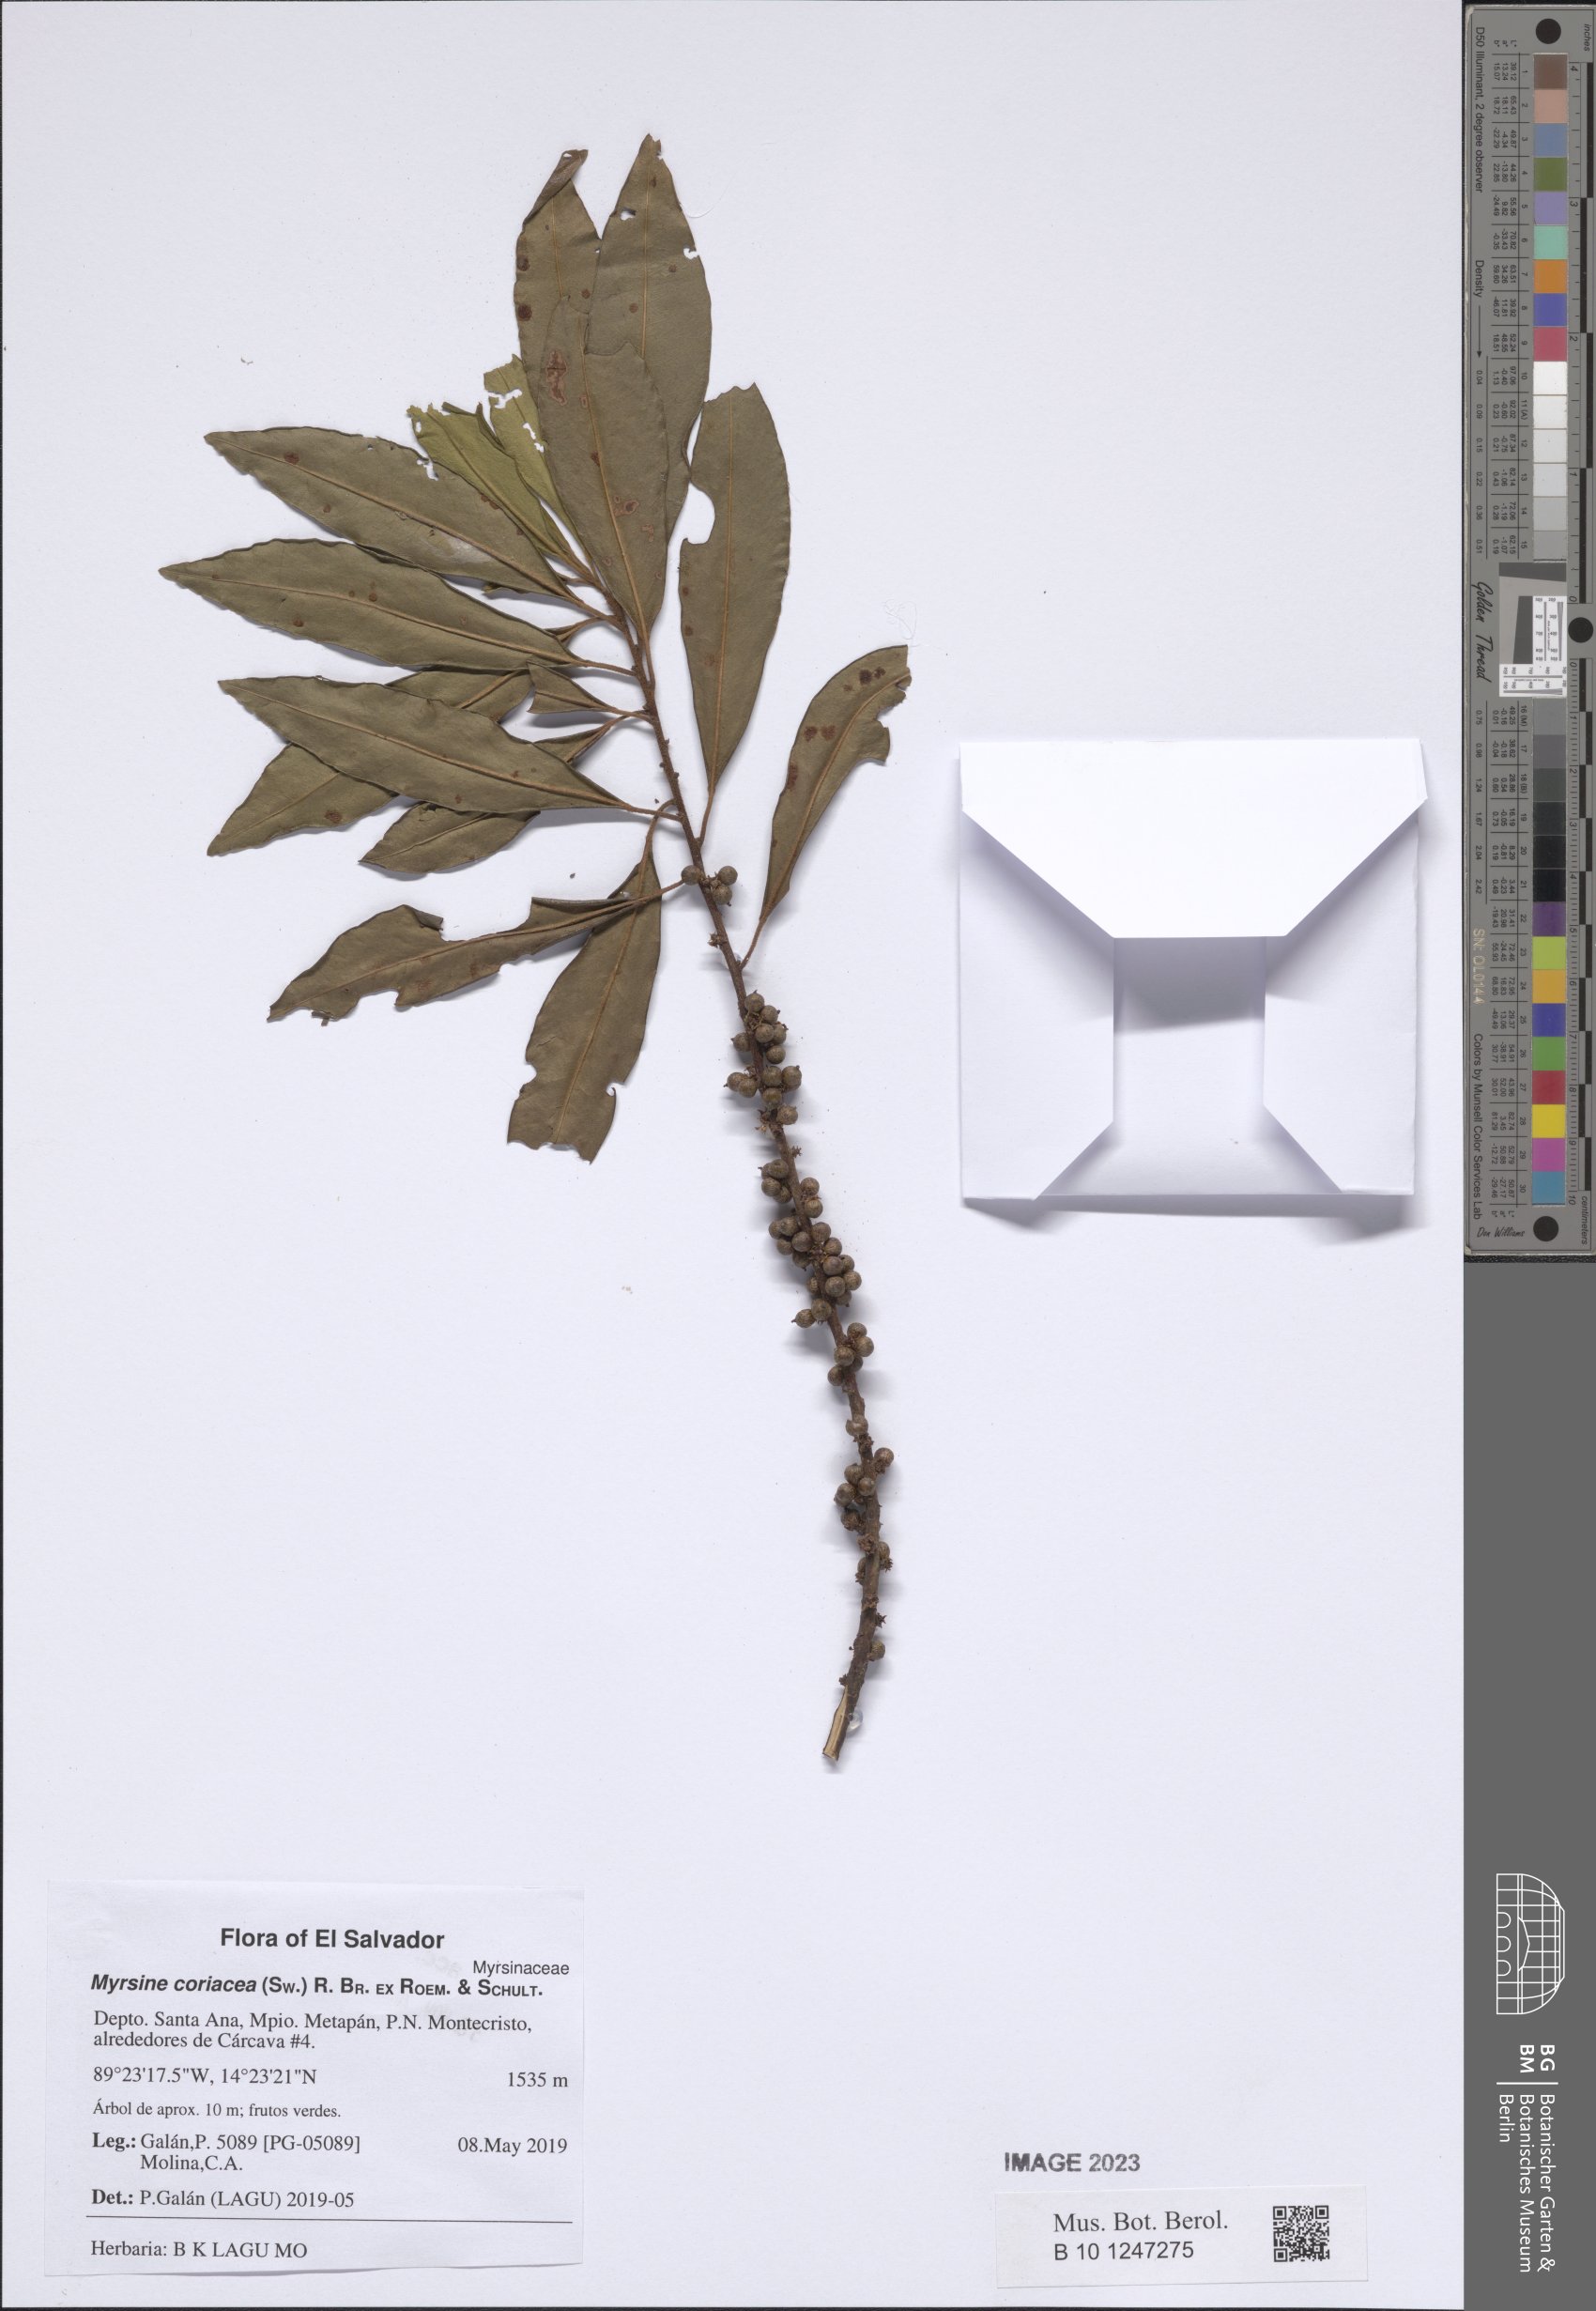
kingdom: Plantae
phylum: Tracheophyta
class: Magnoliopsida
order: Ericales
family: Primulaceae
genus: Myrsine
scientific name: Myrsine coriacea
